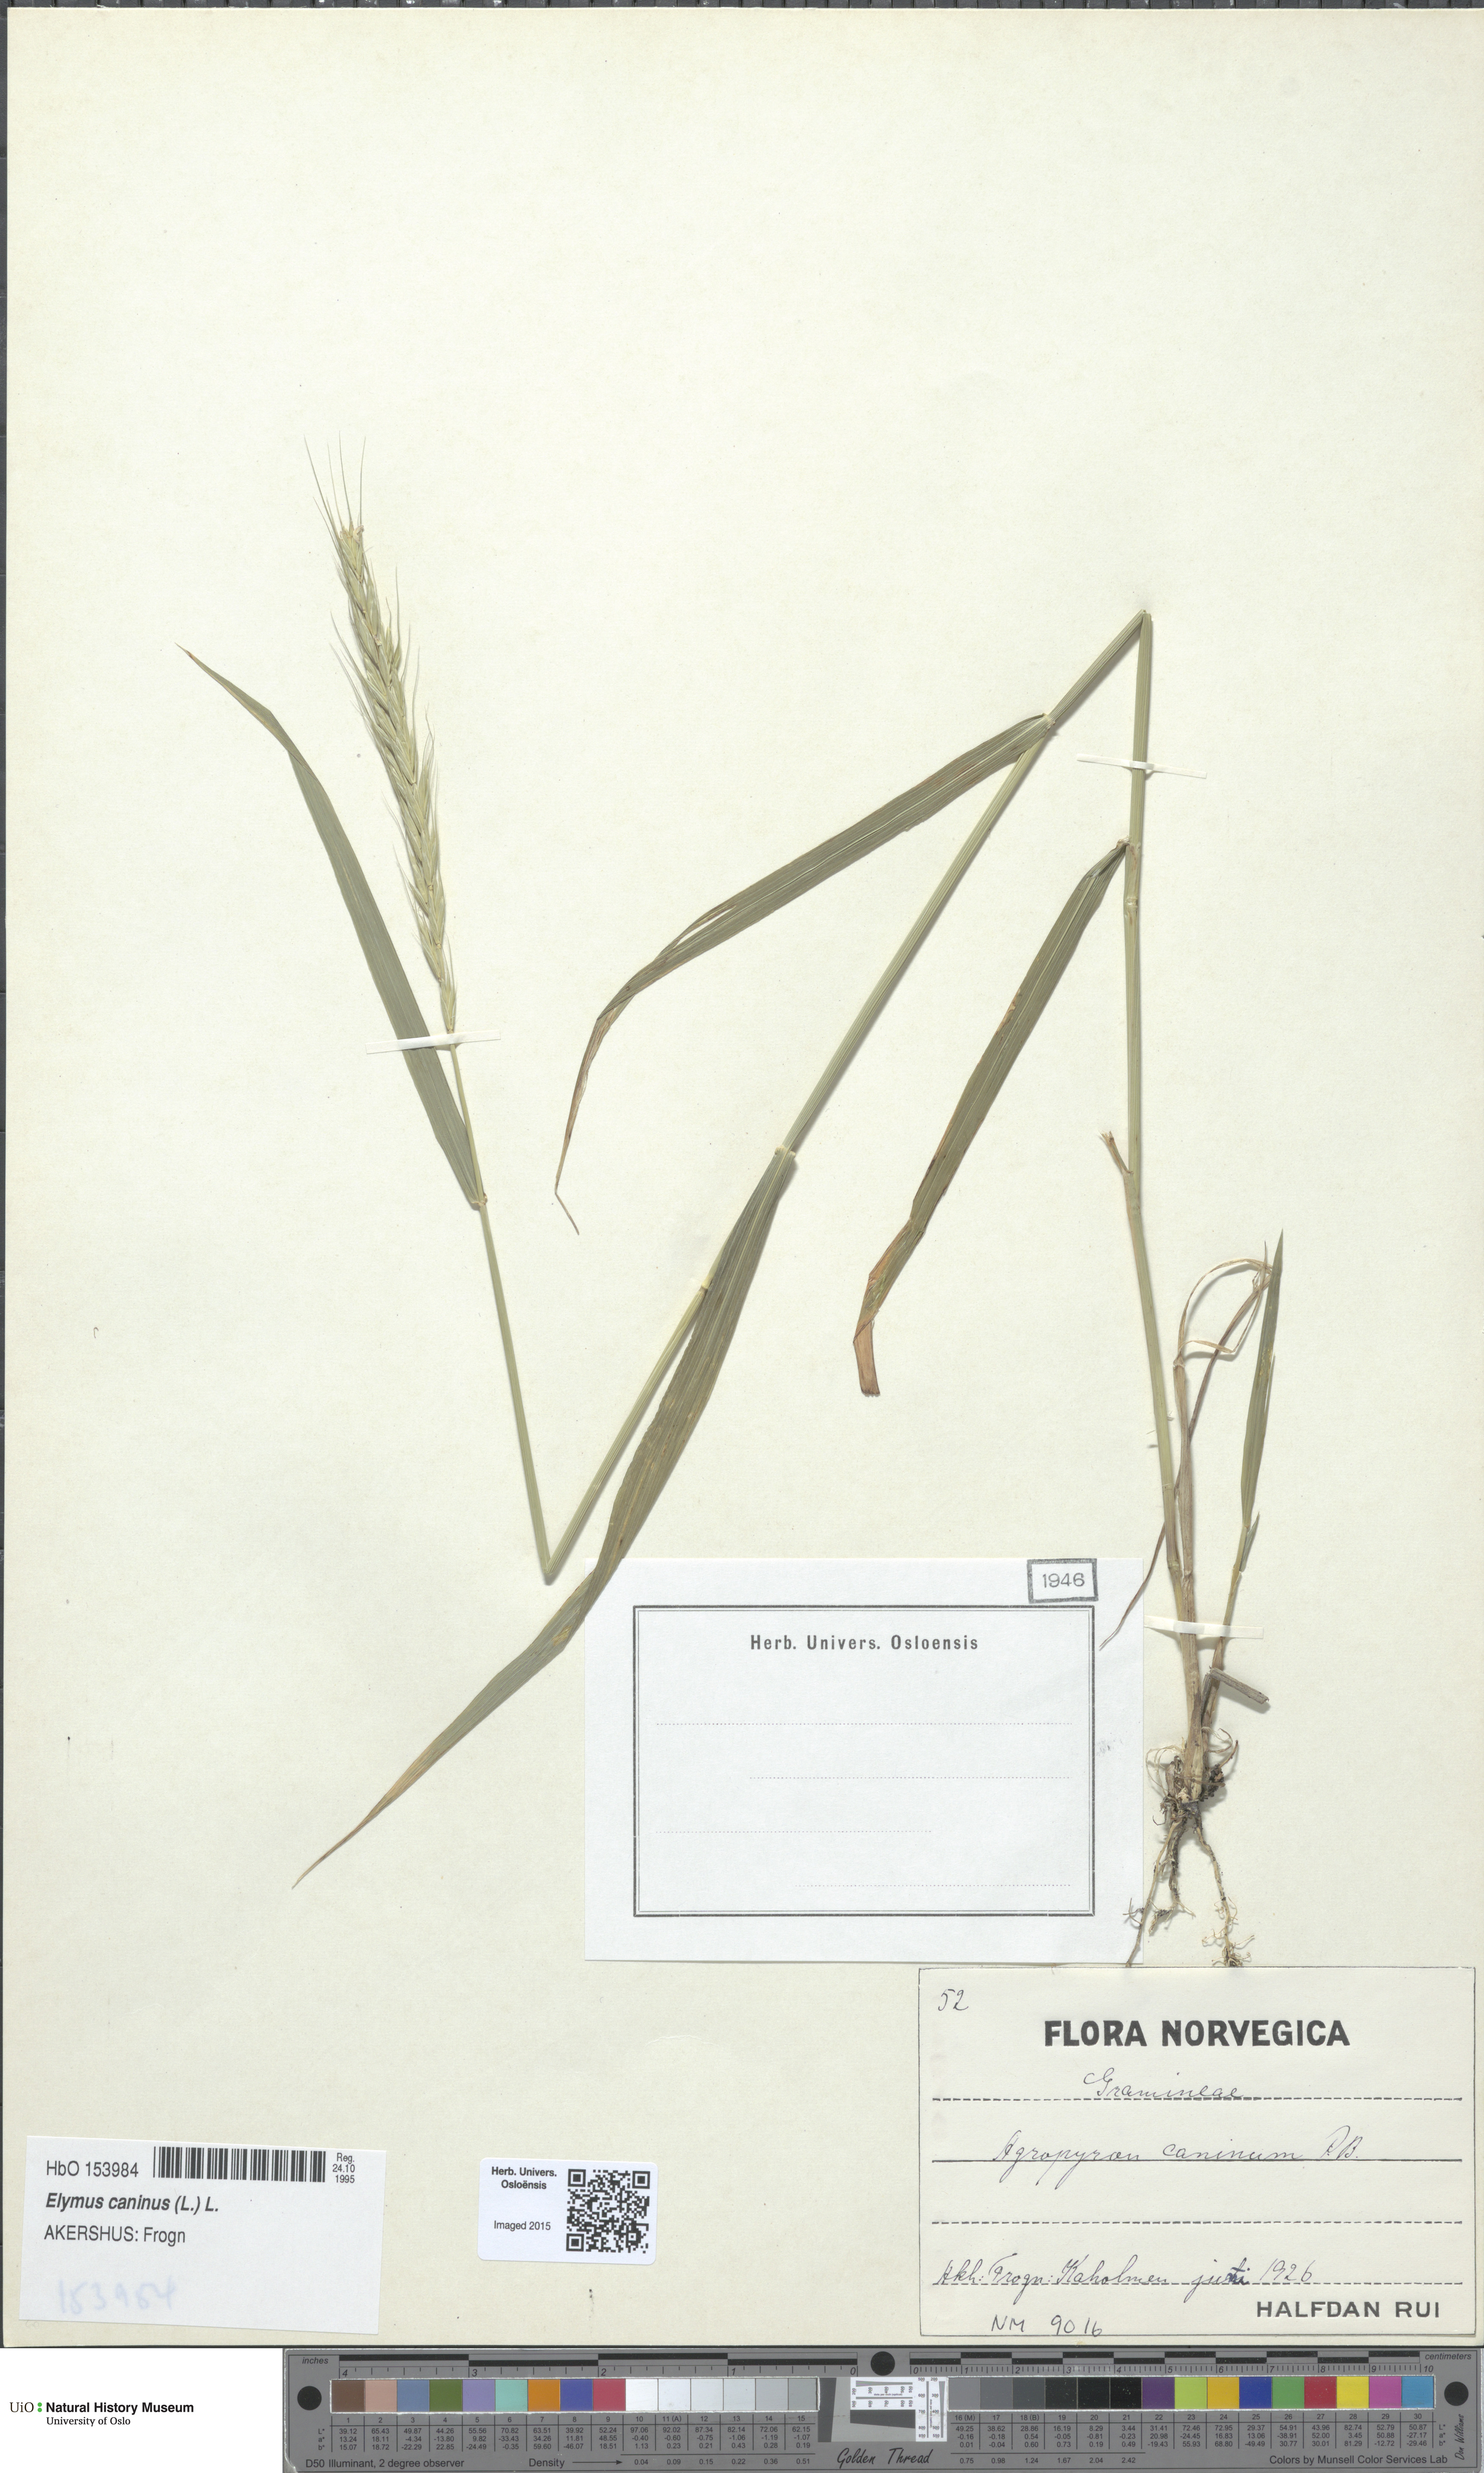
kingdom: Plantae
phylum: Tracheophyta
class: Liliopsida
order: Poales
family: Poaceae
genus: Elymus
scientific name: Elymus caninus
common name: Bearded couch
